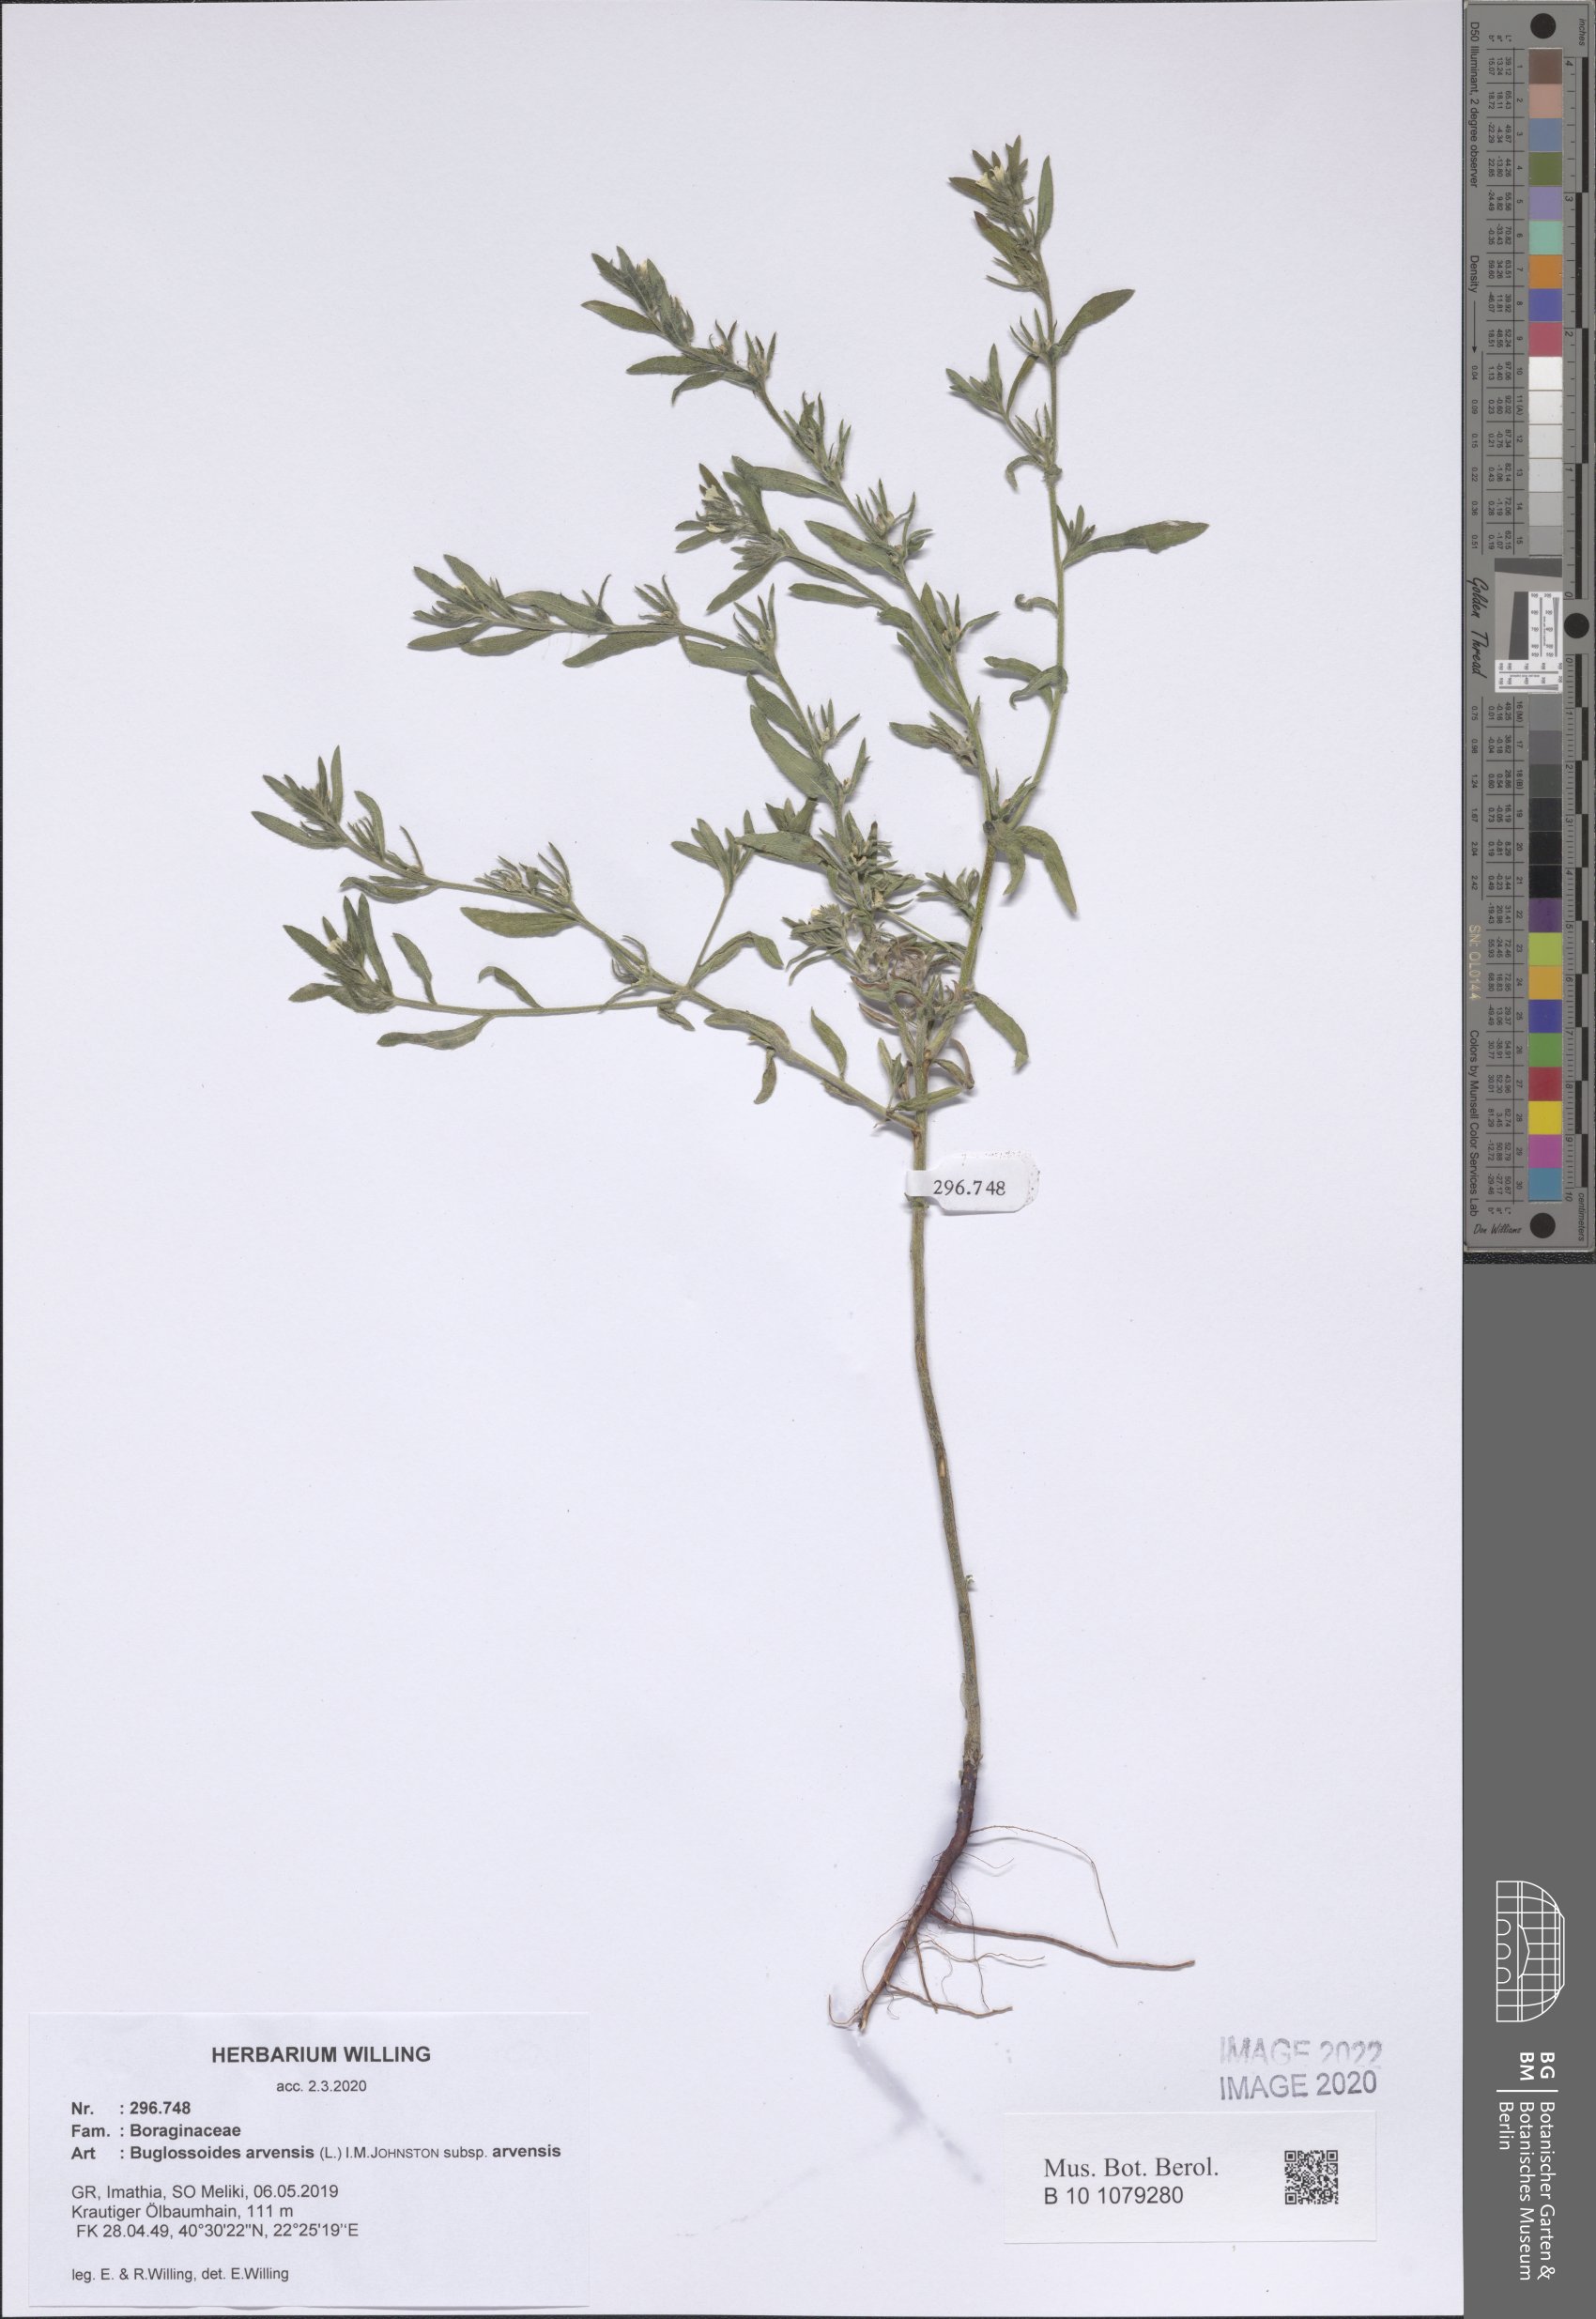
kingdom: Plantae
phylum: Tracheophyta
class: Magnoliopsida
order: Boraginales
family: Boraginaceae
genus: Buglossoides
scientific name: Buglossoides arvensis
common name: Corn gromwell
